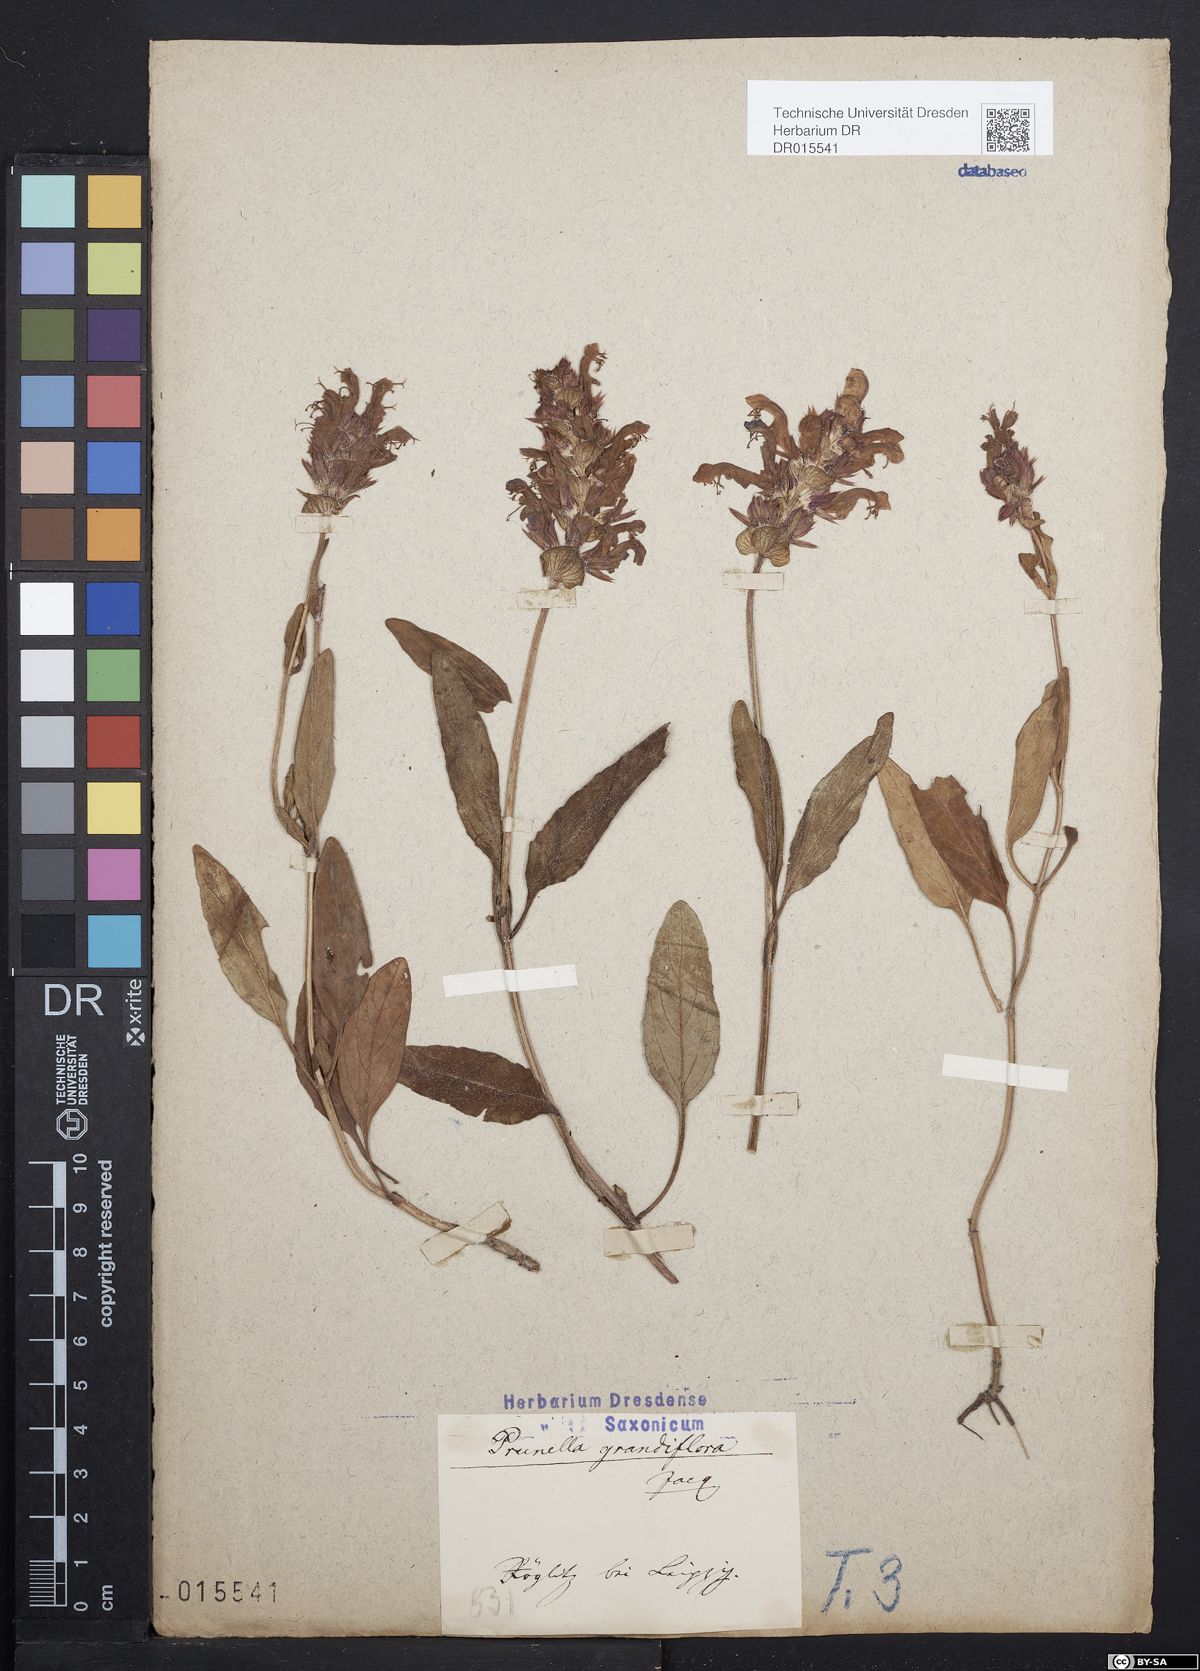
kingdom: Plantae
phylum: Tracheophyta
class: Magnoliopsida
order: Lamiales
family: Lamiaceae
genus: Prunella
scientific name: Prunella grandiflora
